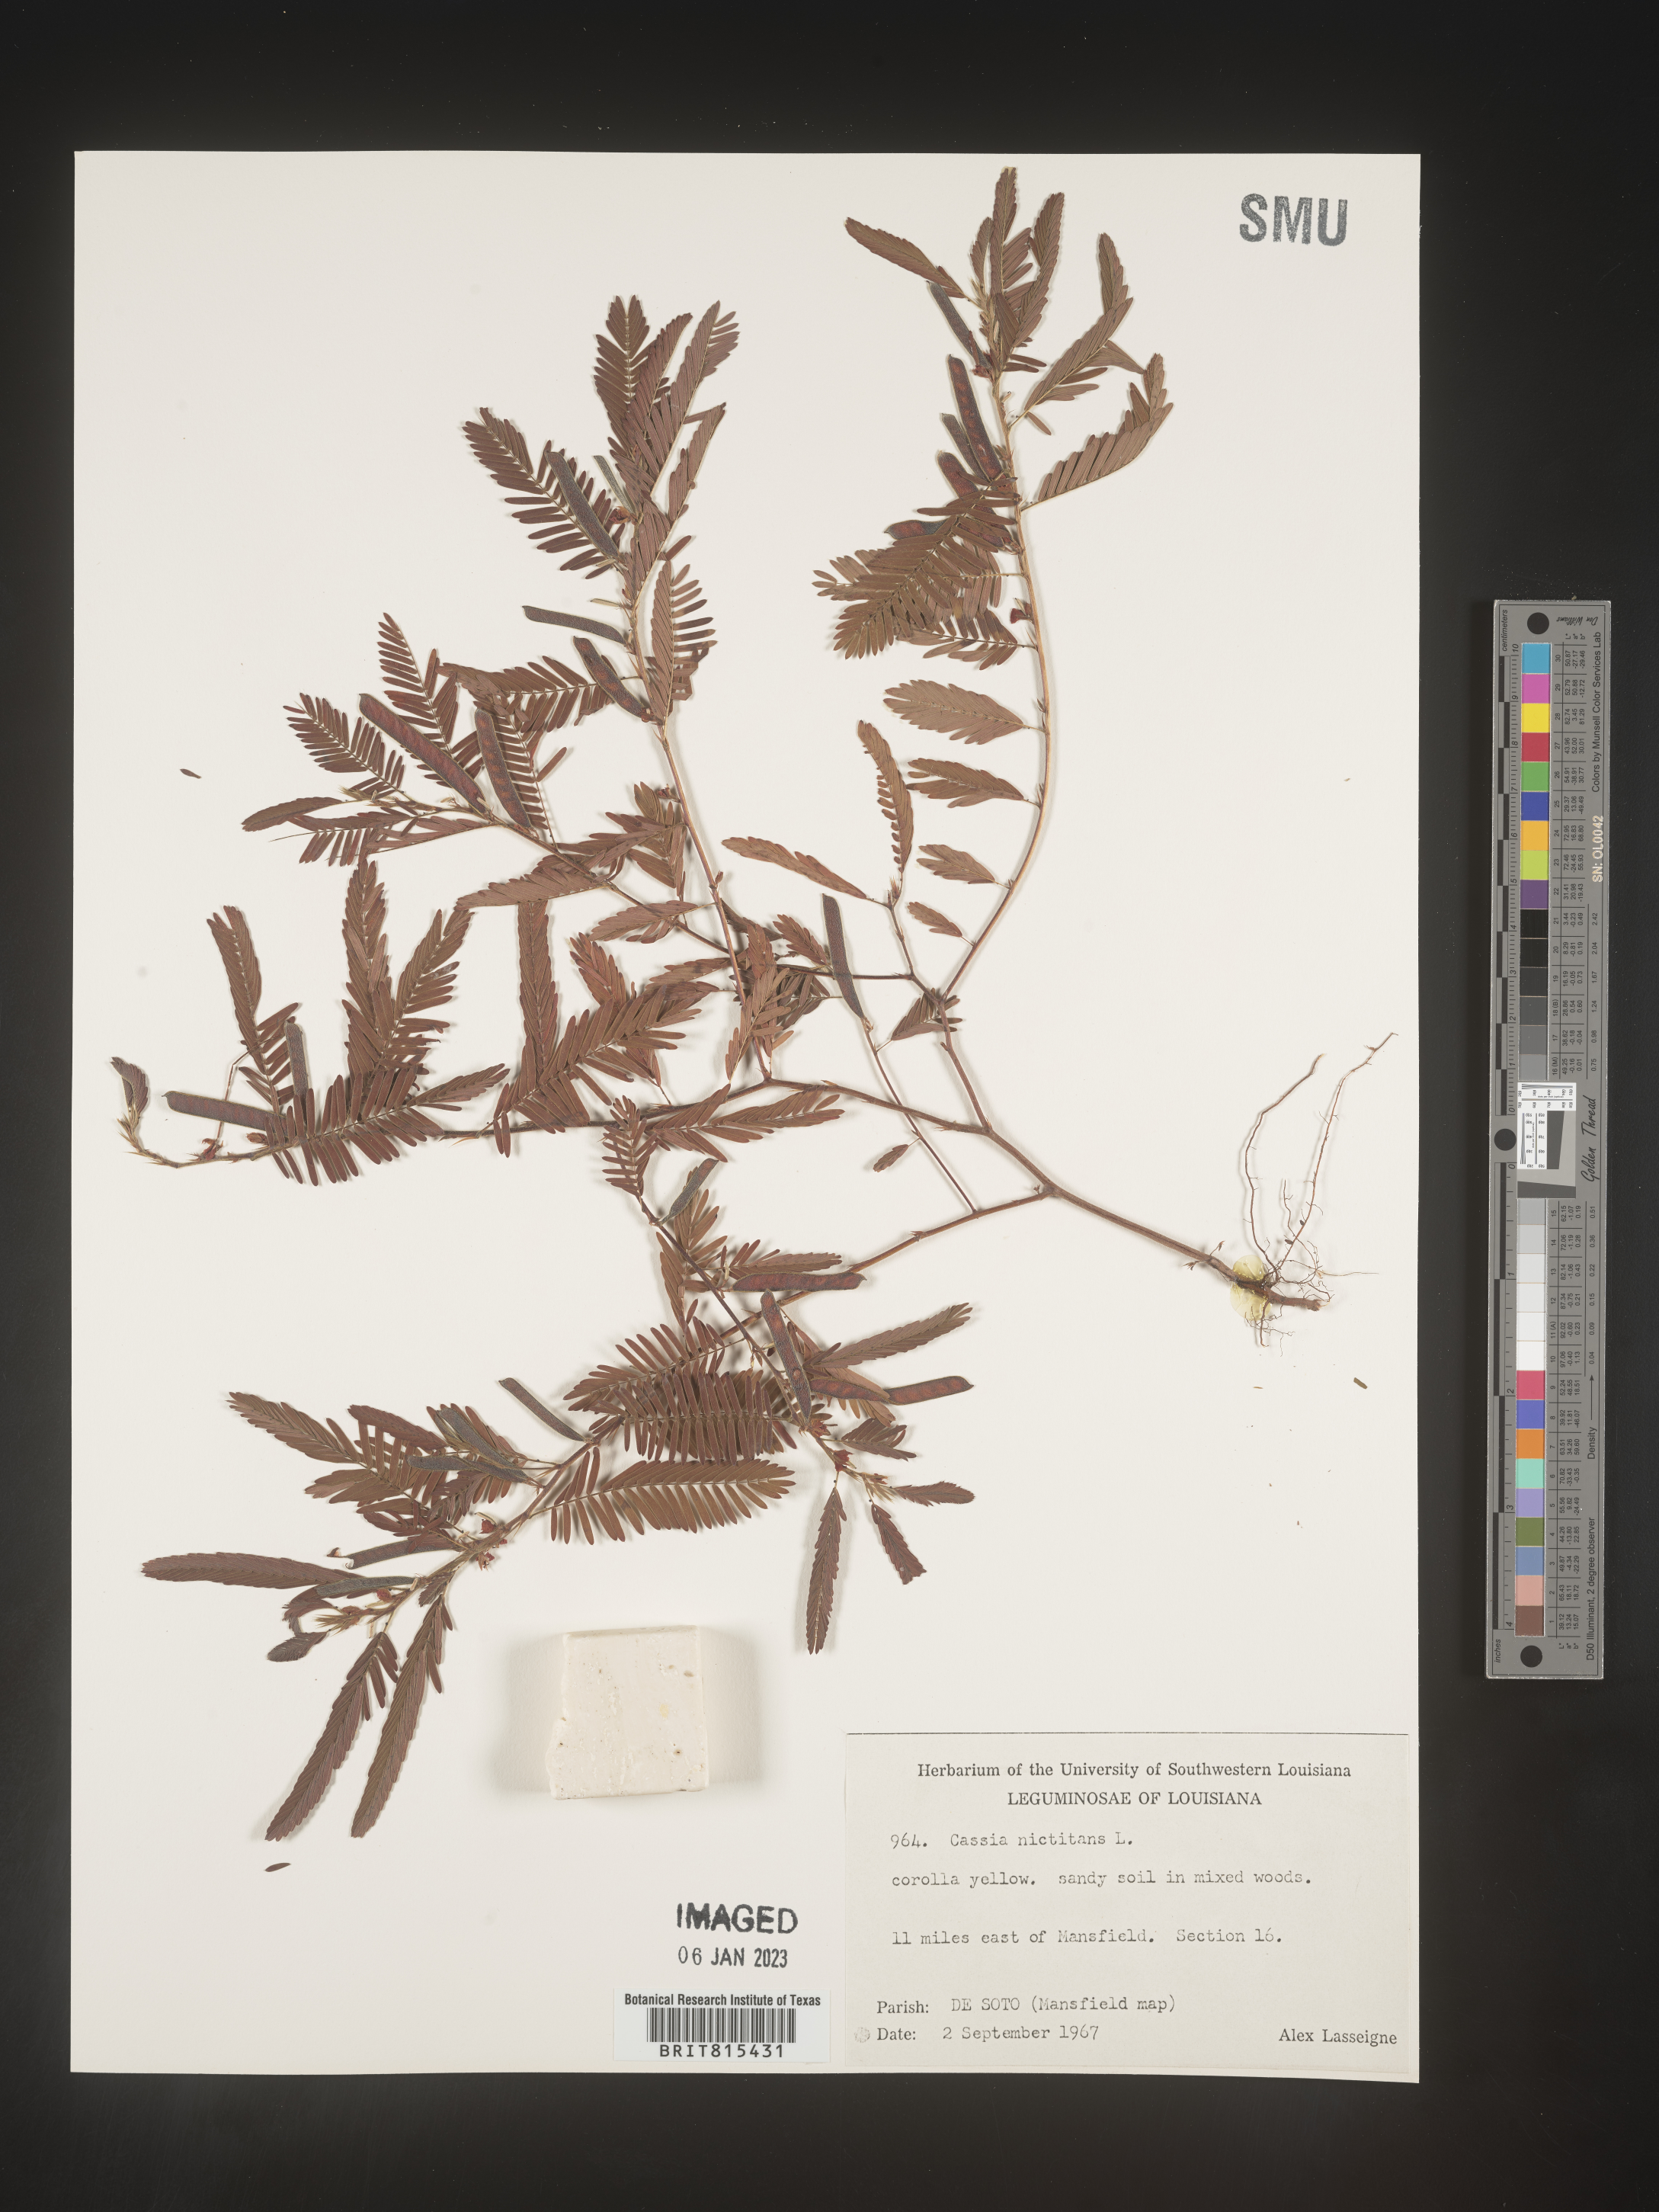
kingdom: Plantae
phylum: Tracheophyta
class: Magnoliopsida
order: Fabales
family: Fabaceae
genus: Chamaecrista
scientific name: Chamaecrista nictitans
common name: Sensitive cassia
